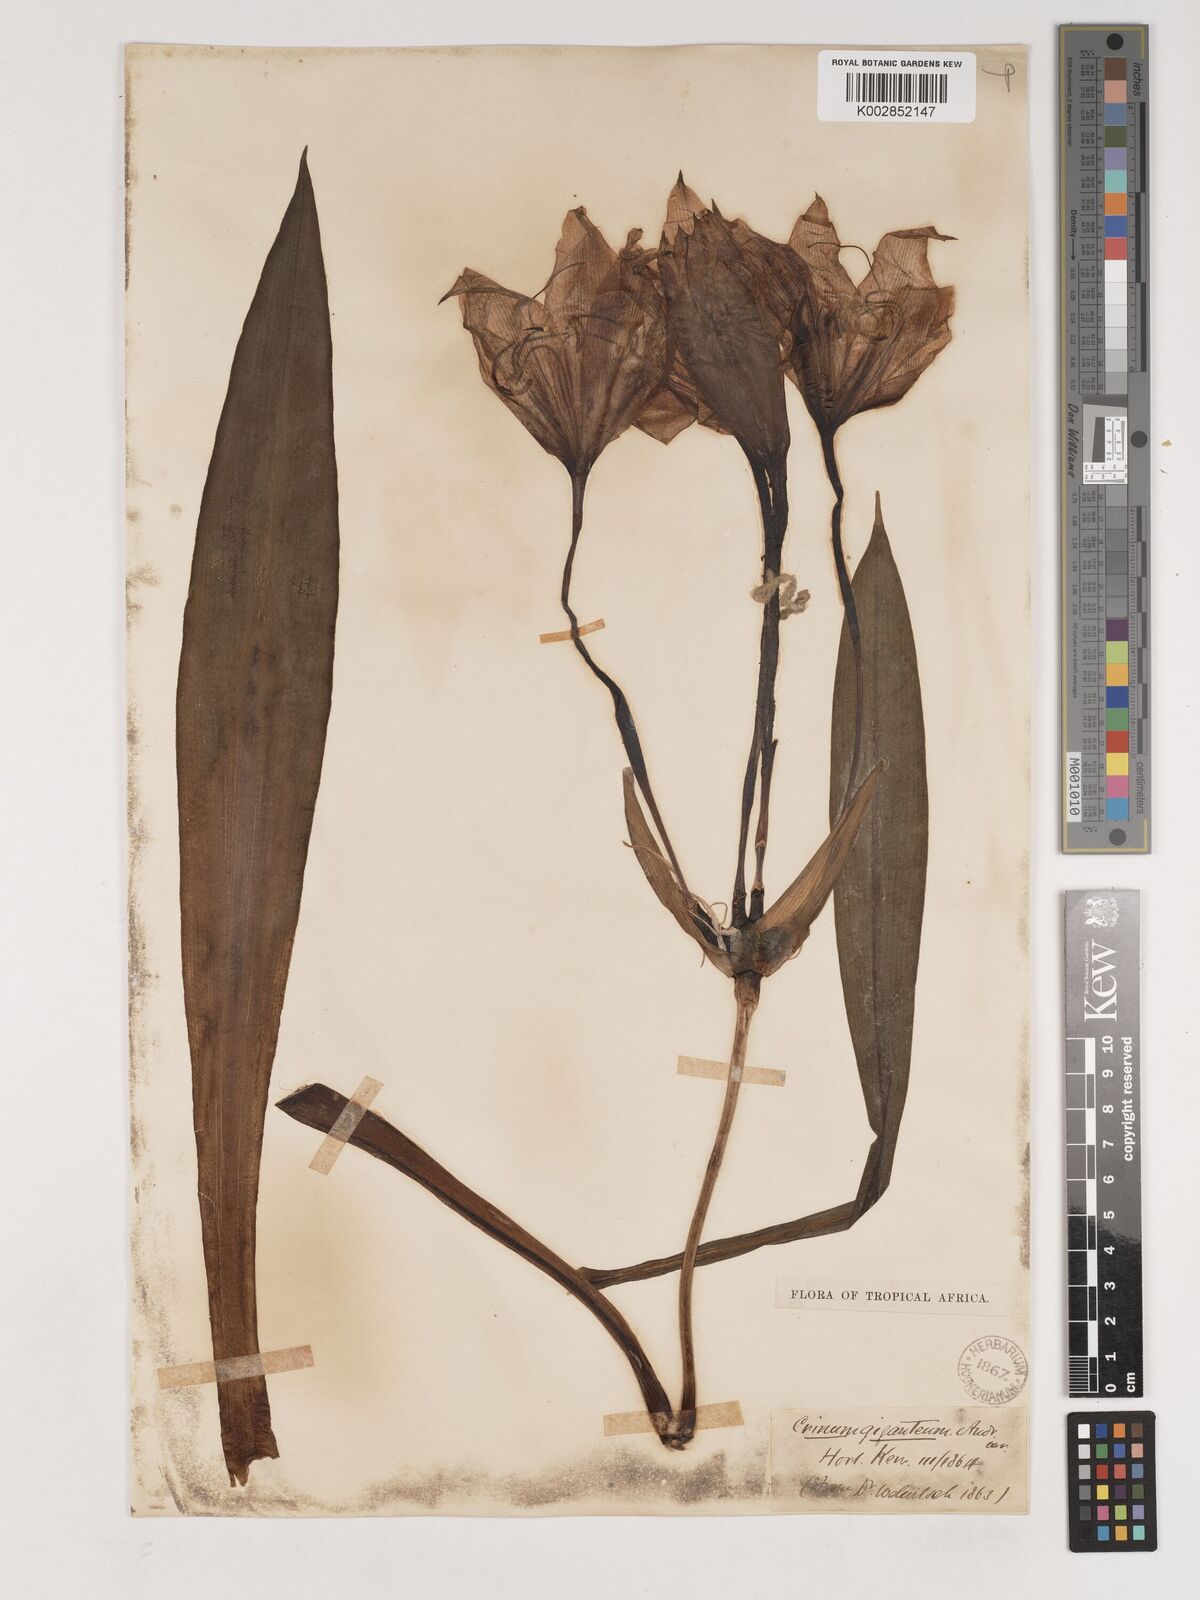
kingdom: Plantae
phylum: Tracheophyta
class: Liliopsida
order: Asparagales
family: Amaryllidaceae
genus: Crinum
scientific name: Crinum jagus
